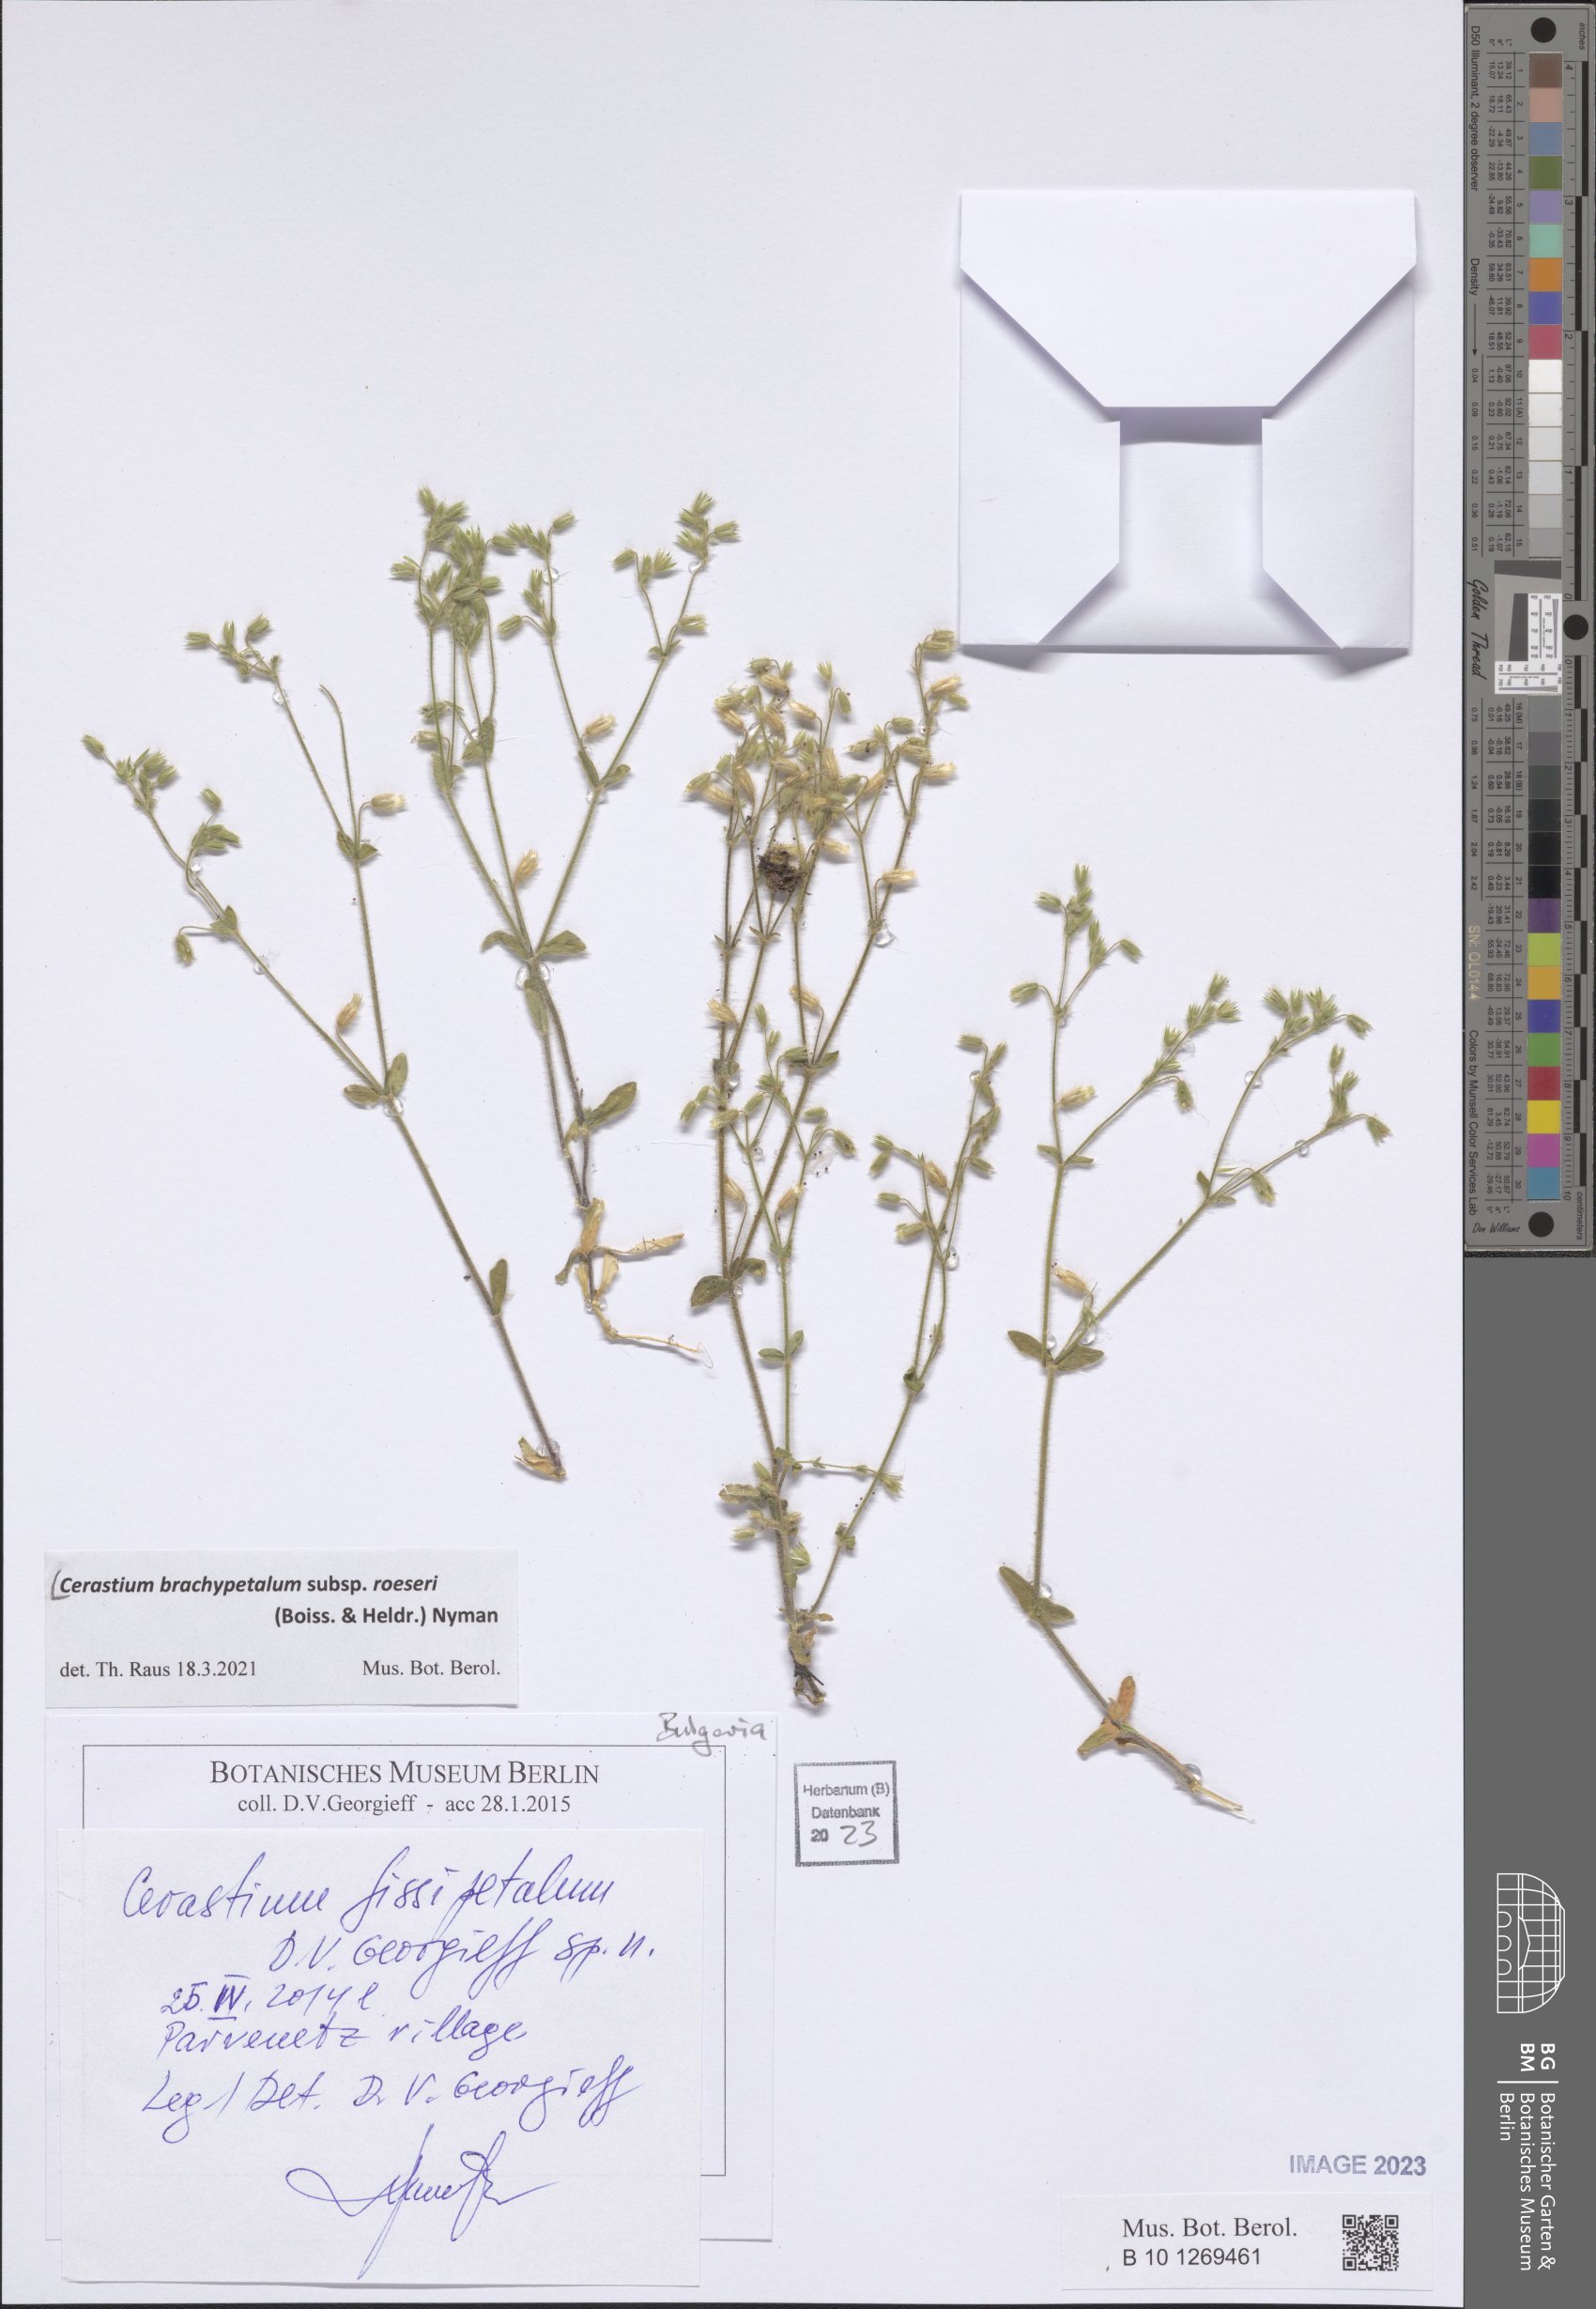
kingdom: Plantae
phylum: Tracheophyta
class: Magnoliopsida
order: Caryophyllales
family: Caryophyllaceae
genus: Cerastium
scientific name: Cerastium brachypetalum
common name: Grey mouse-ear
